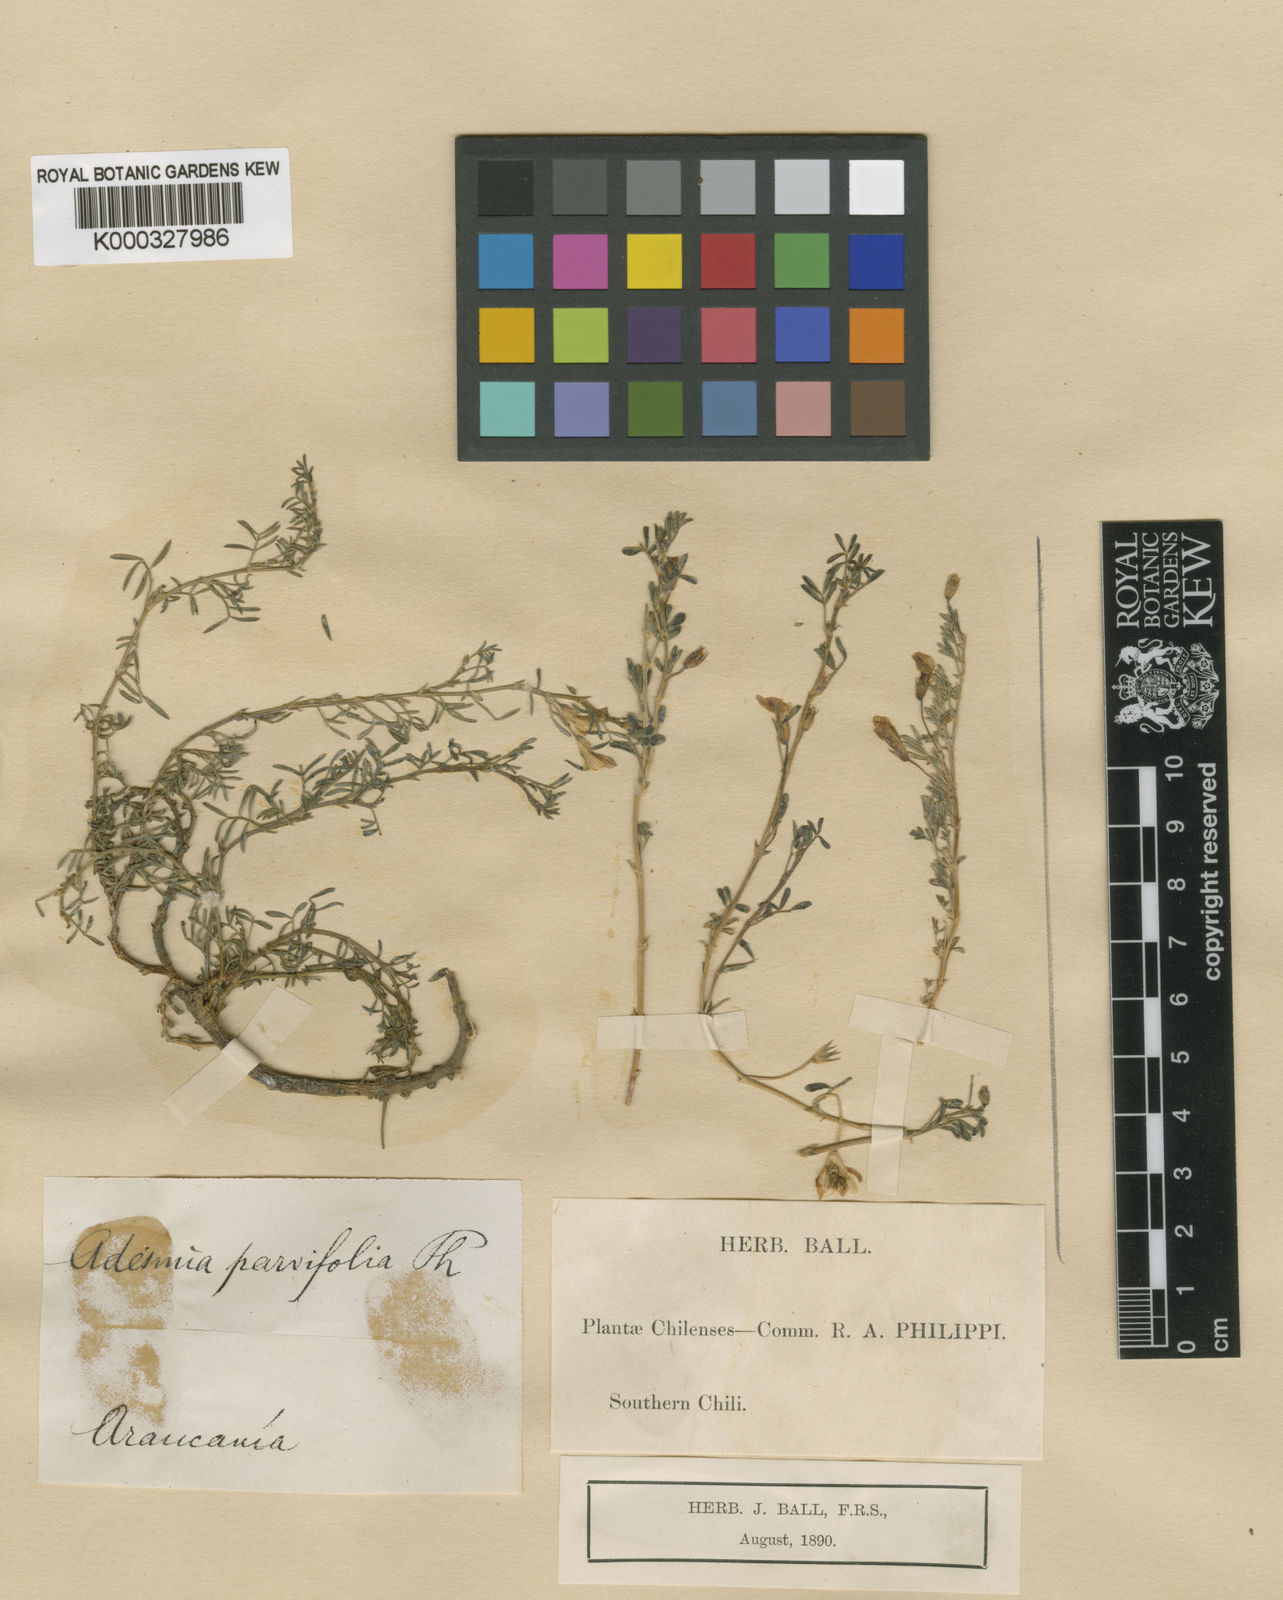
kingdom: Plantae
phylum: Tracheophyta
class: Magnoliopsida
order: Fabales
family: Fabaceae
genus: Adesmia
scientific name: Adesmia parviflora
